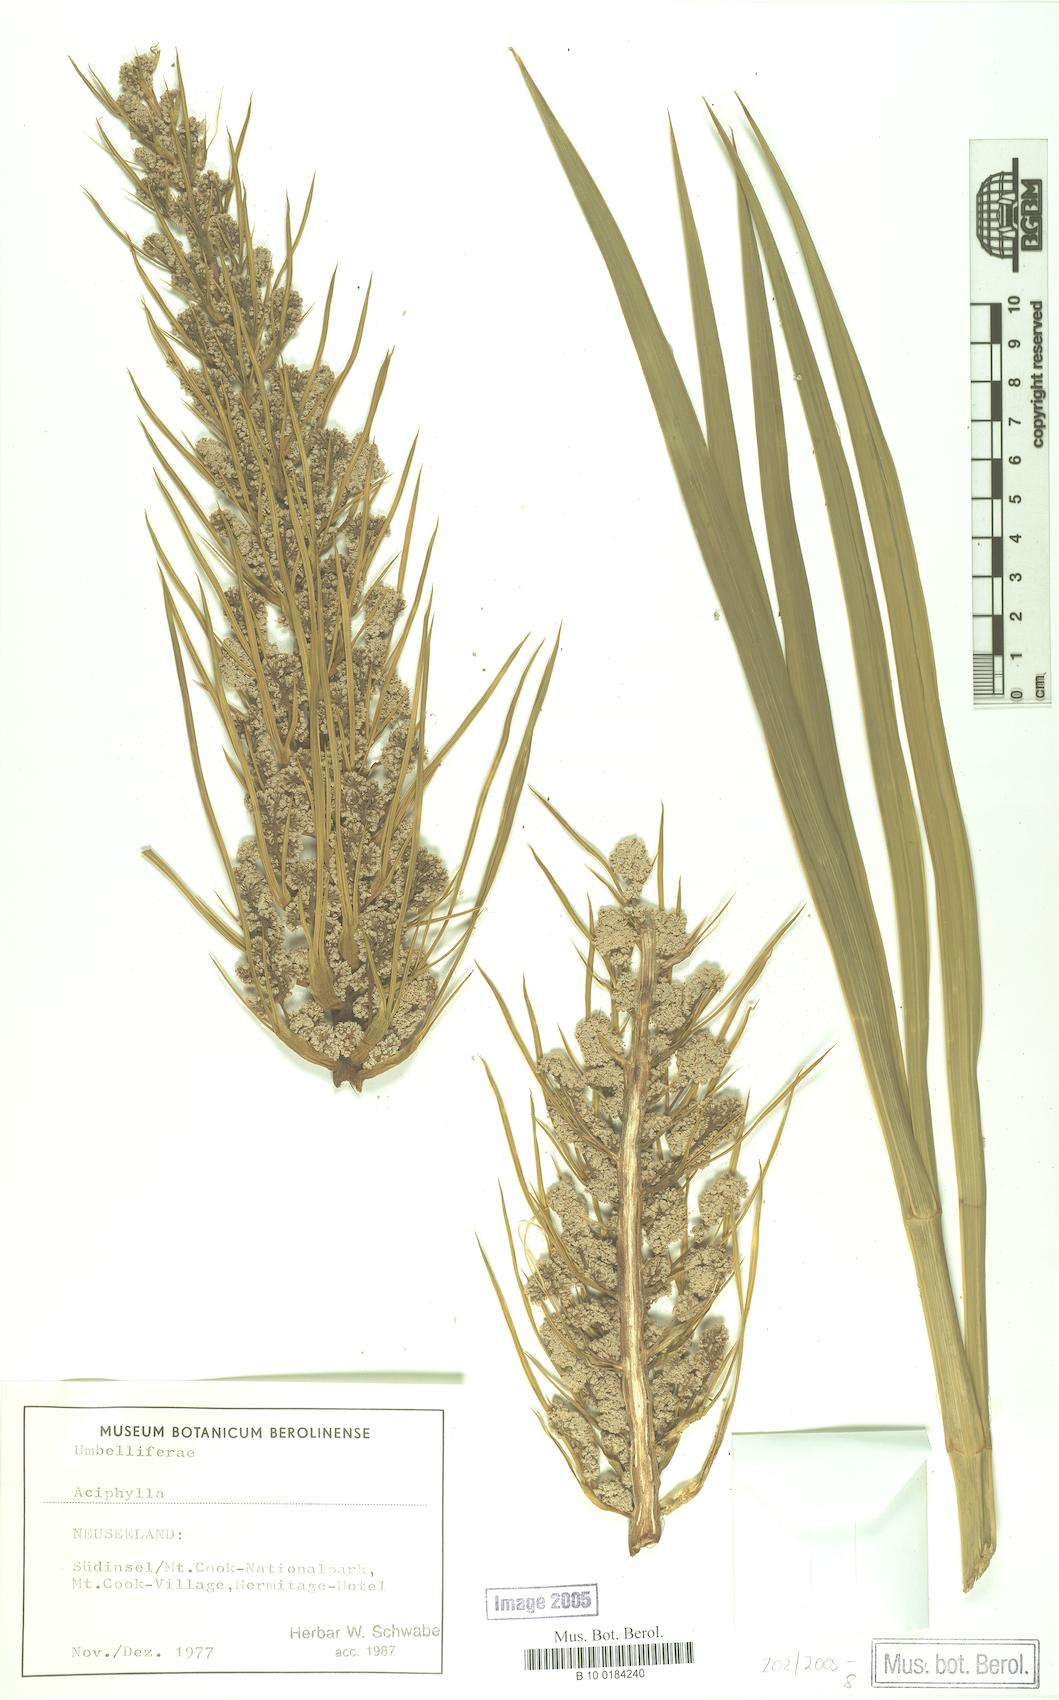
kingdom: Plantae
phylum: Tracheophyta
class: Magnoliopsida
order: Apiales
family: Apiaceae
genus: Aciphylla
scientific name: Aciphylla
